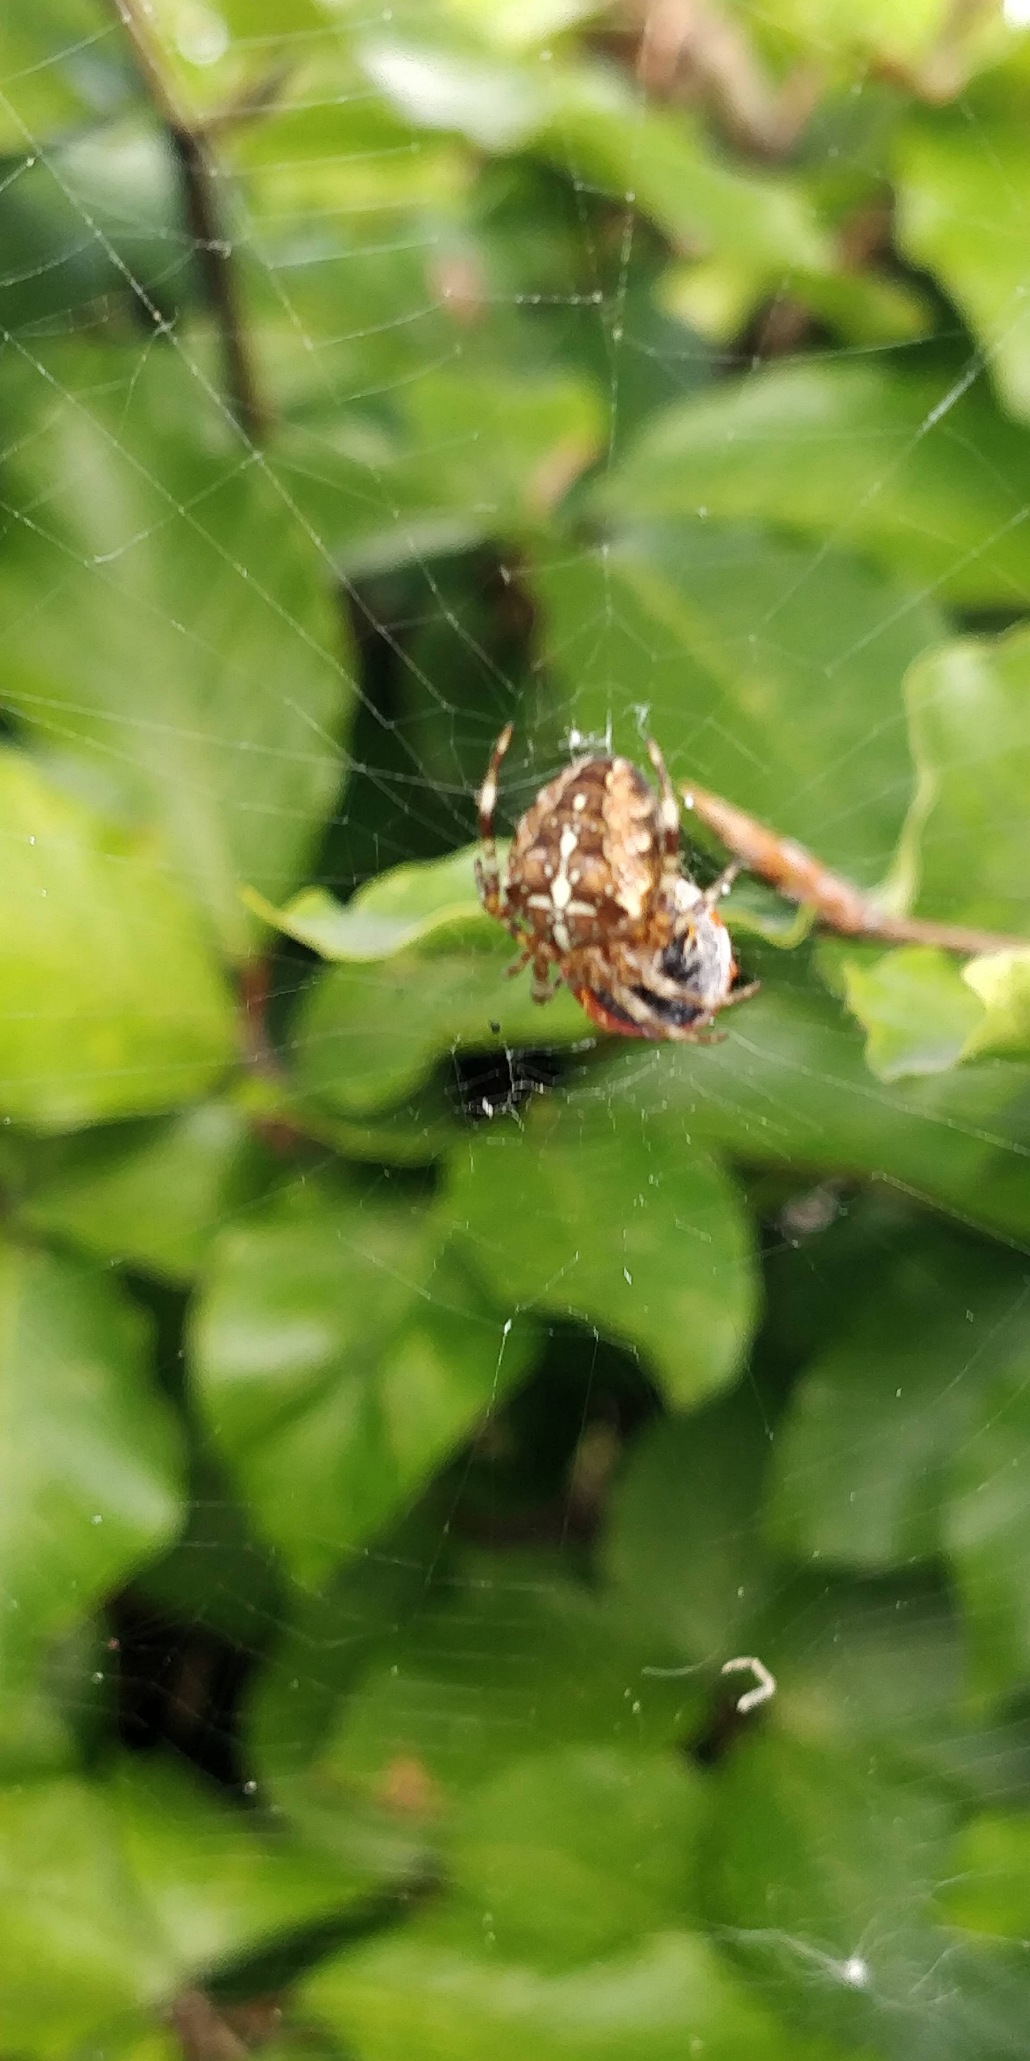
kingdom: Animalia
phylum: Arthropoda
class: Arachnida
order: Araneae
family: Araneidae
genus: Araneus
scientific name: Araneus diadematus
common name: Korsedderkop
